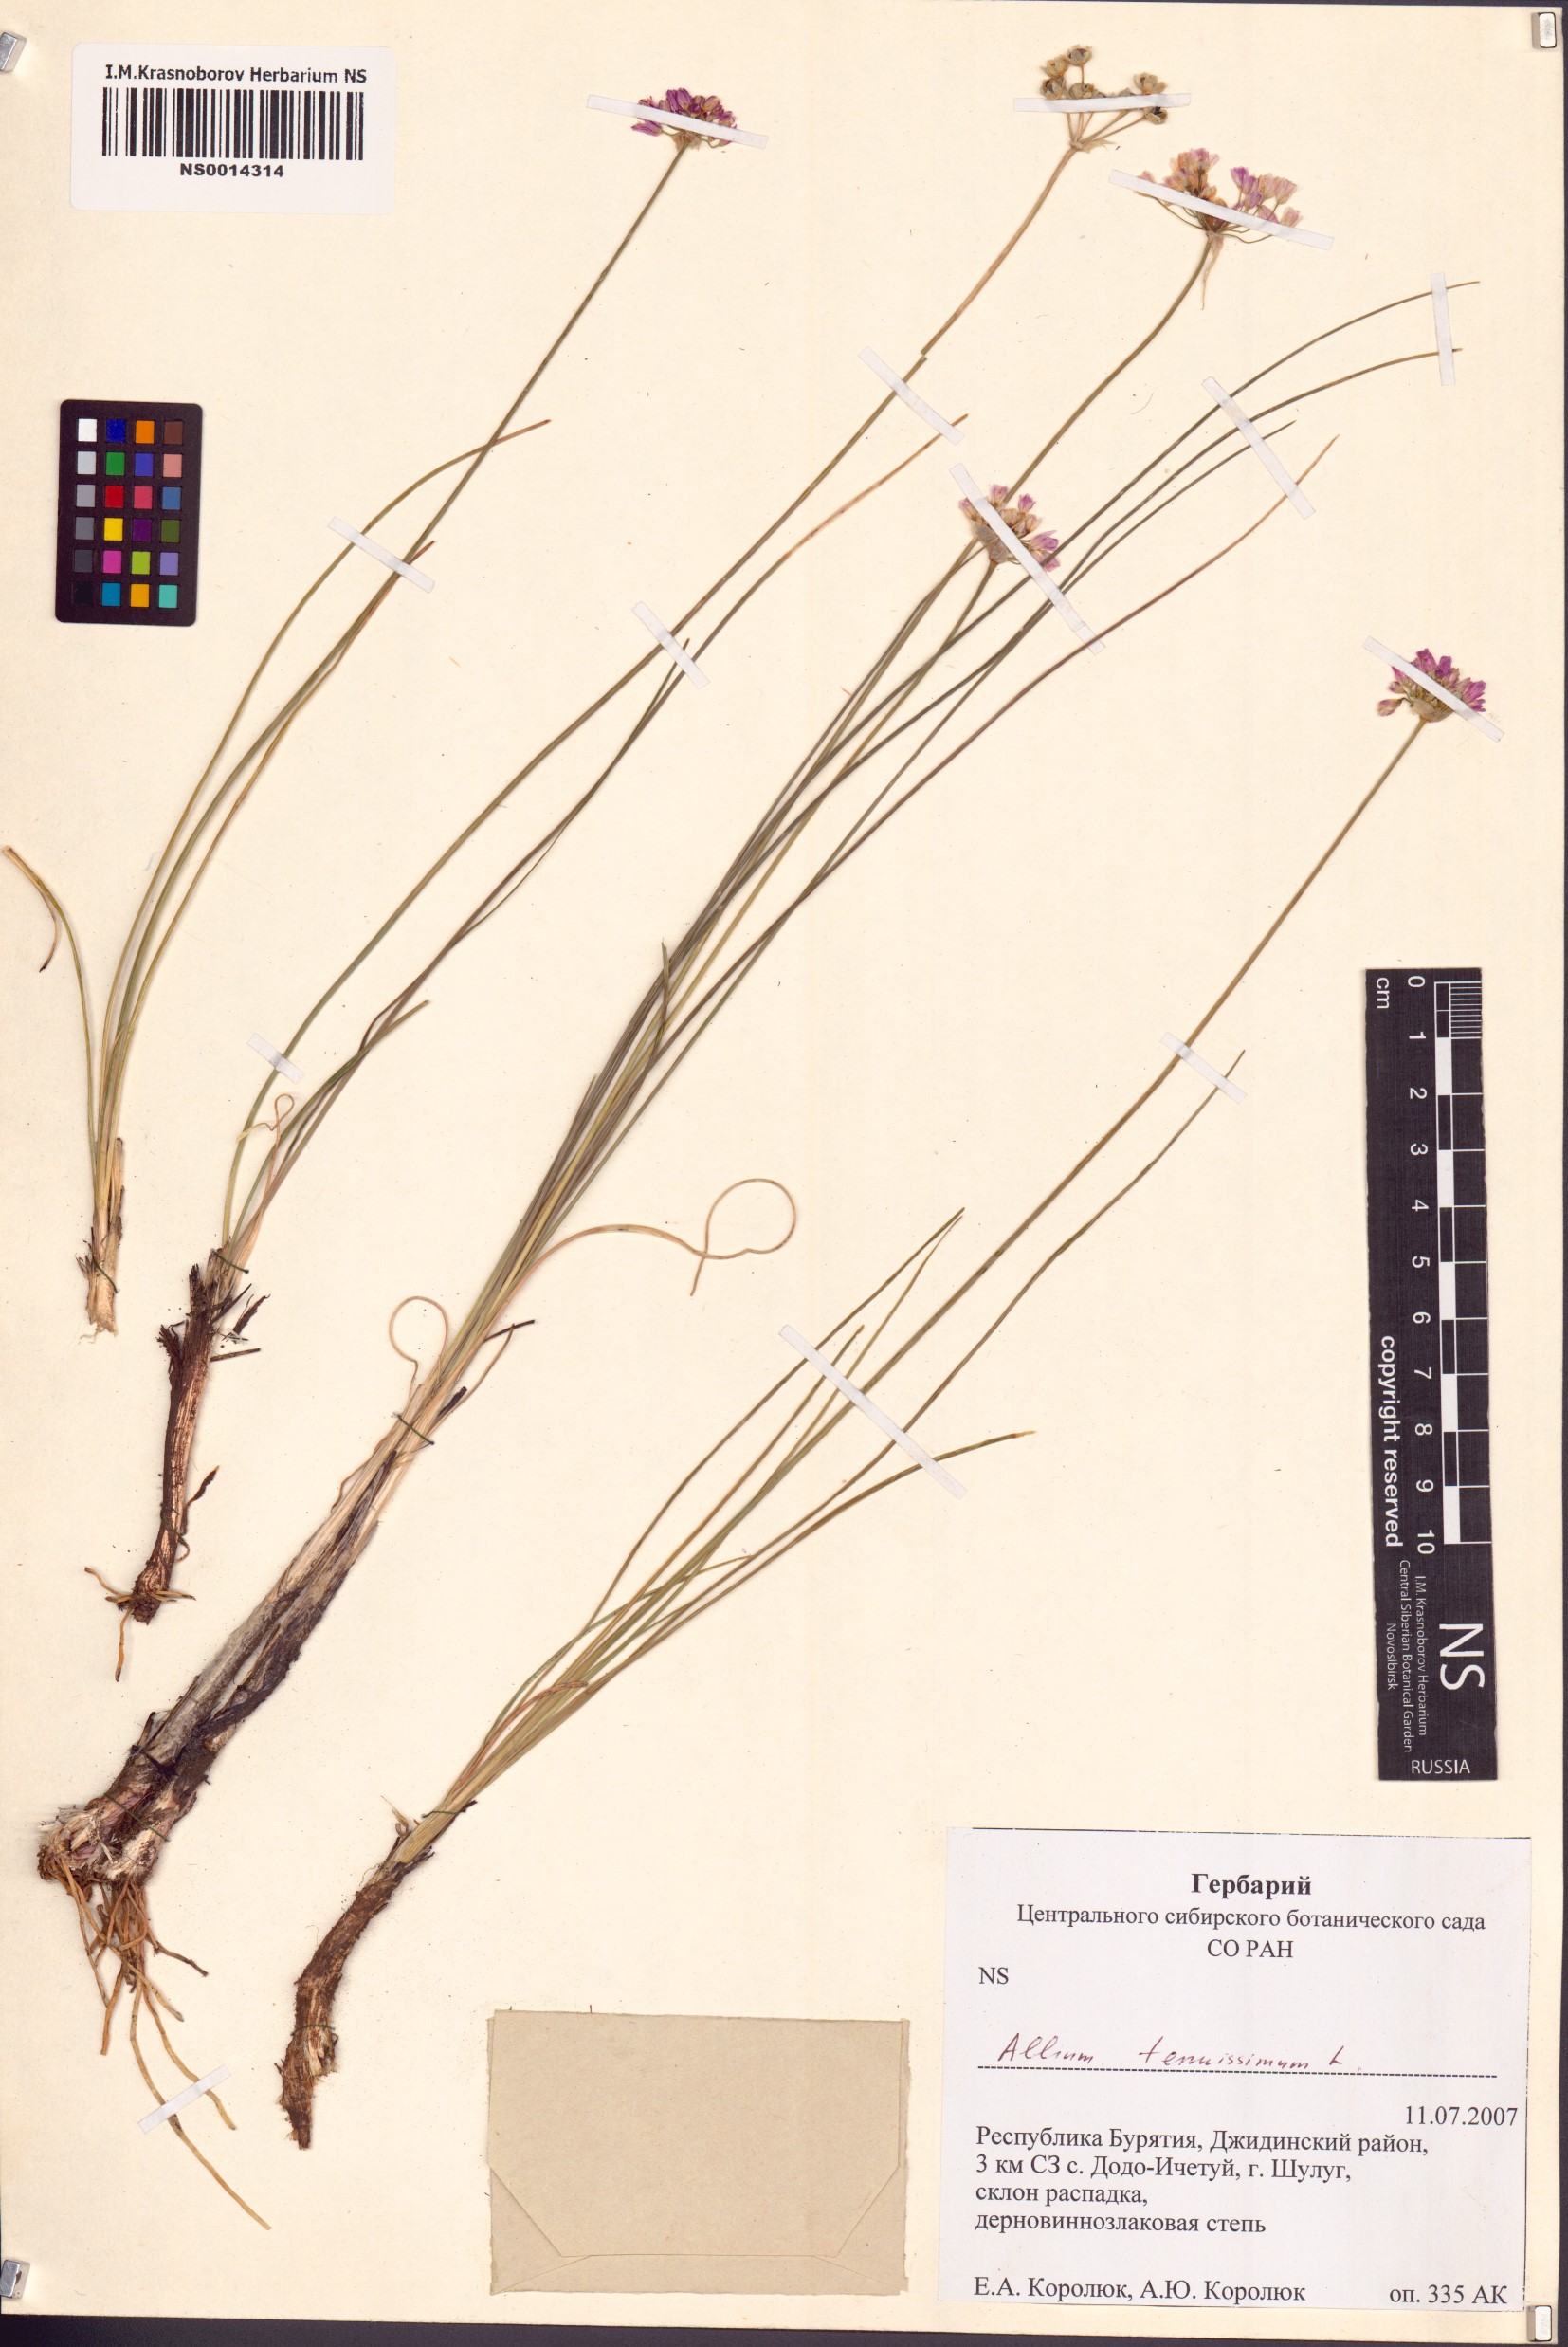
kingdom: Plantae
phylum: Tracheophyta
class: Liliopsida
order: Asparagales
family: Amaryllidaceae
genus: Allium
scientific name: Allium tenuissimum
